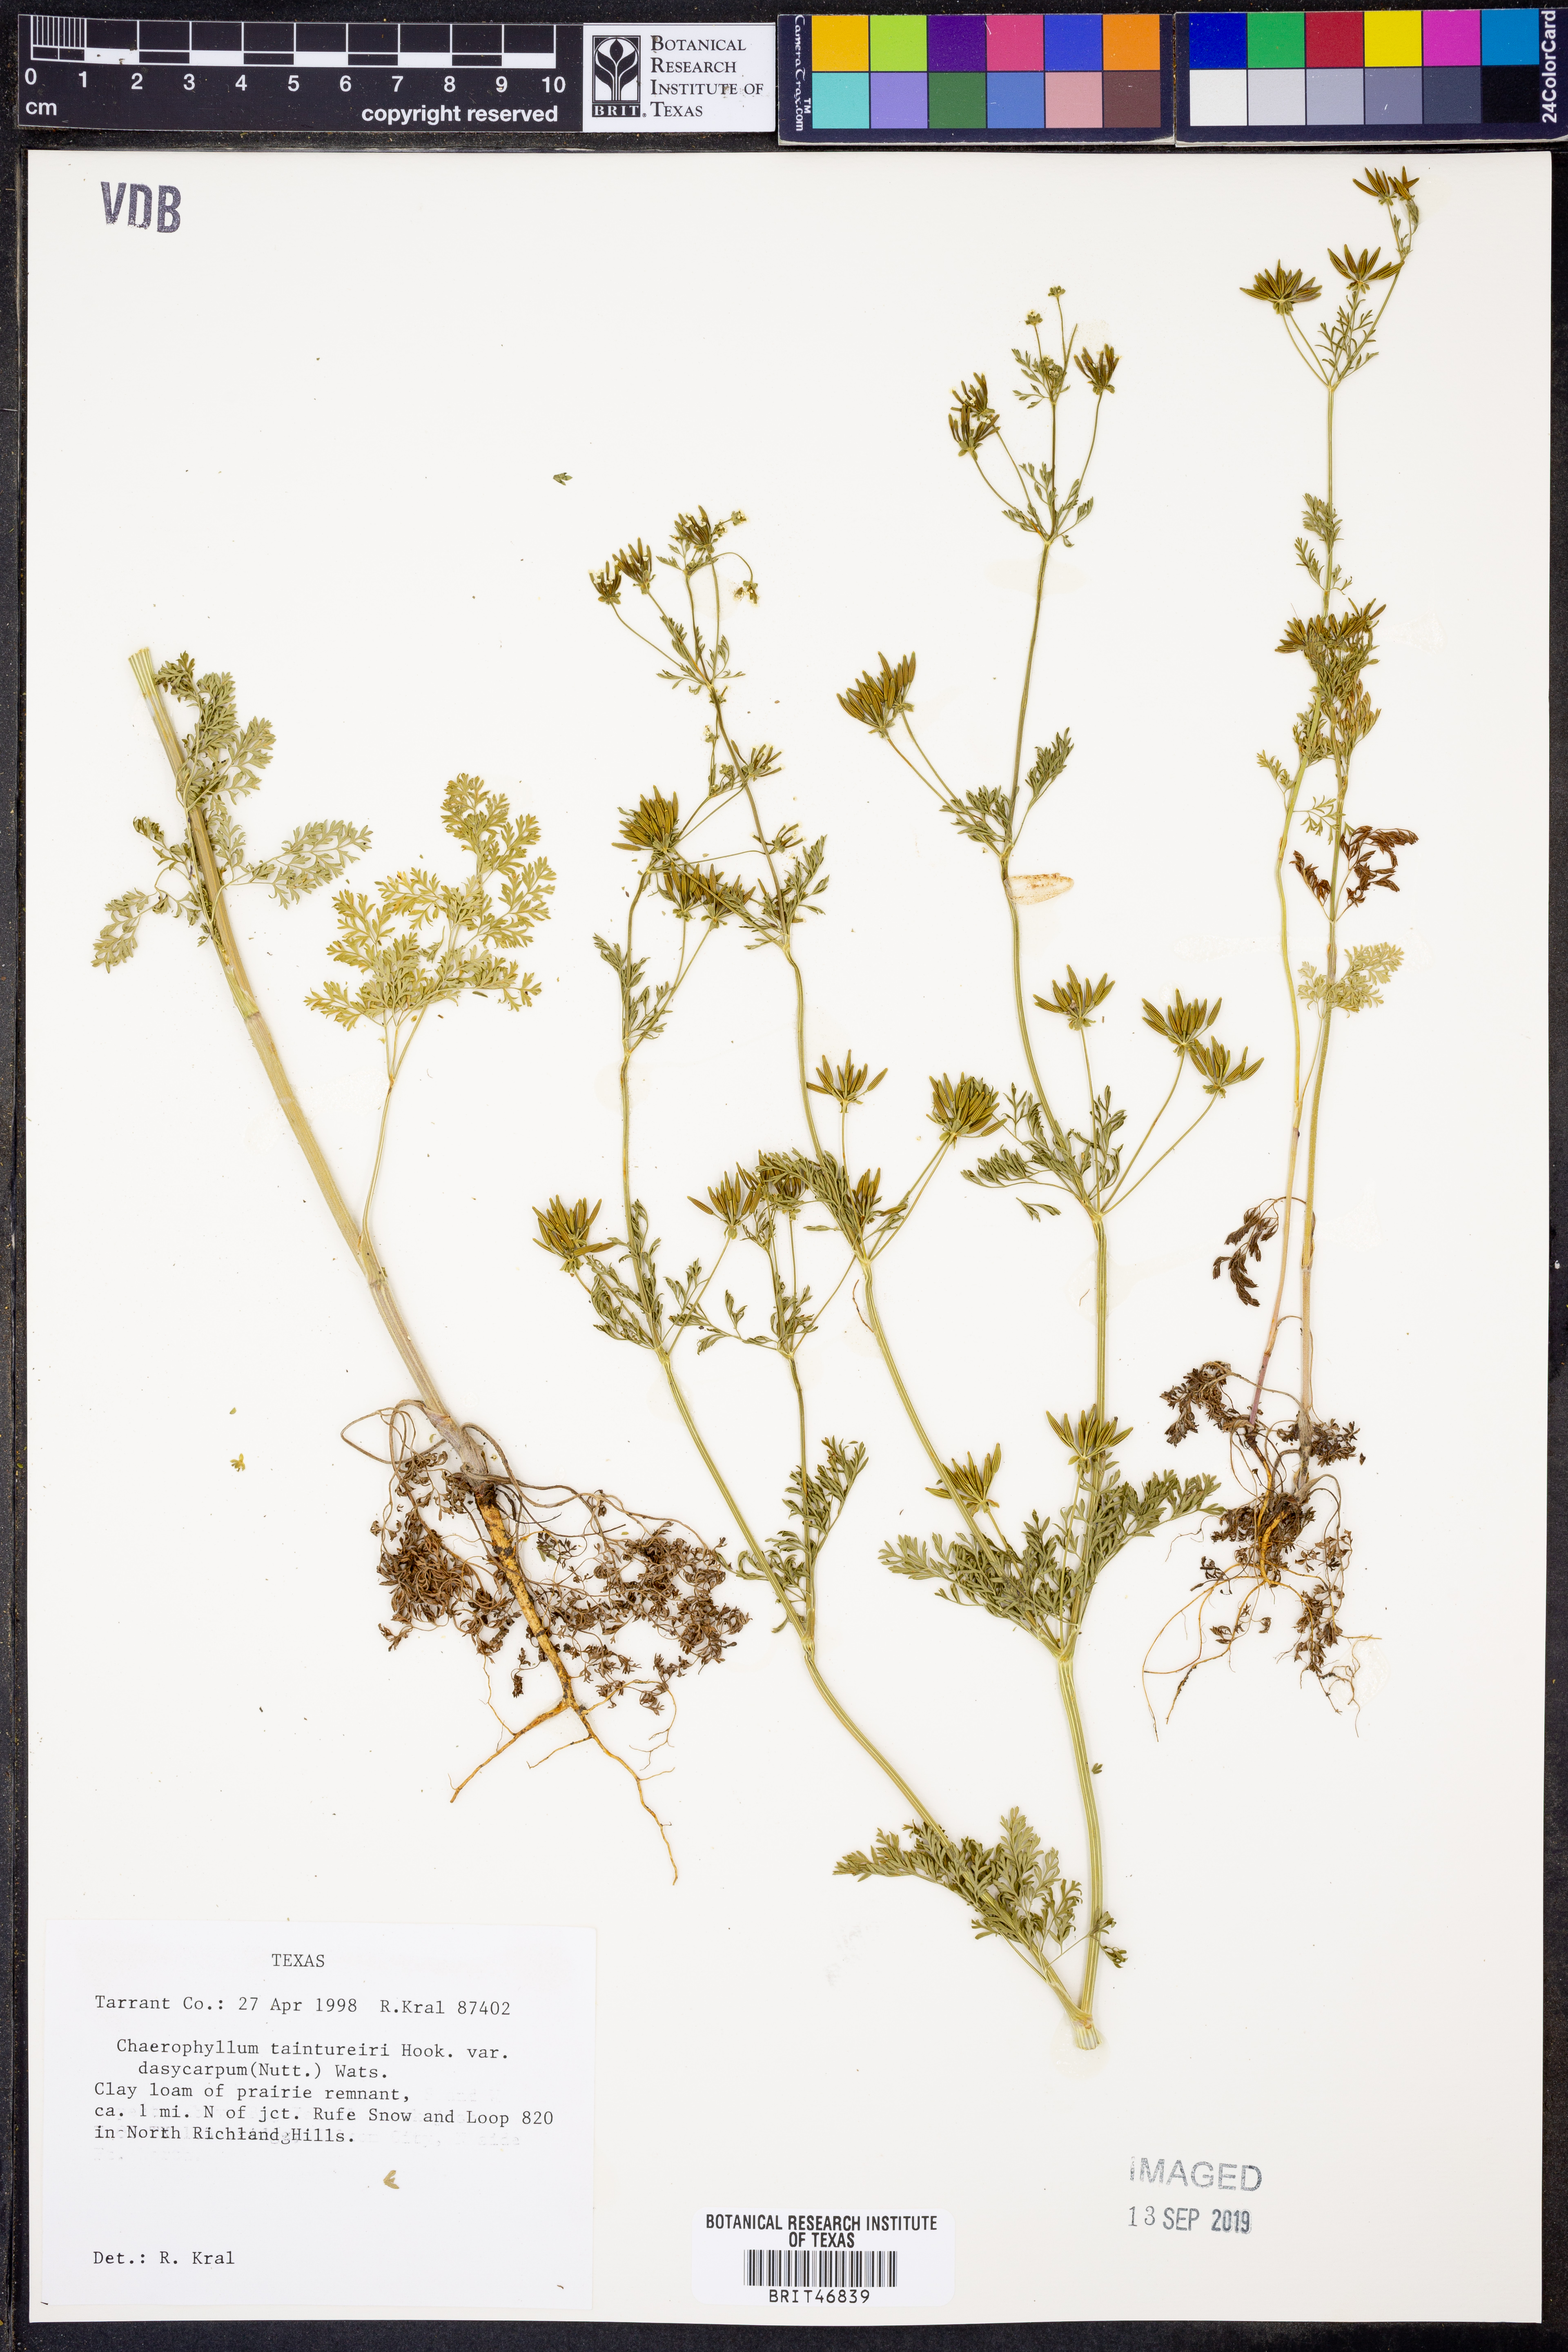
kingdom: Plantae
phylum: Tracheophyta
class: Magnoliopsida
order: Apiales
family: Apiaceae
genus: Chaerophyllum
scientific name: Chaerophyllum dasycarpum
